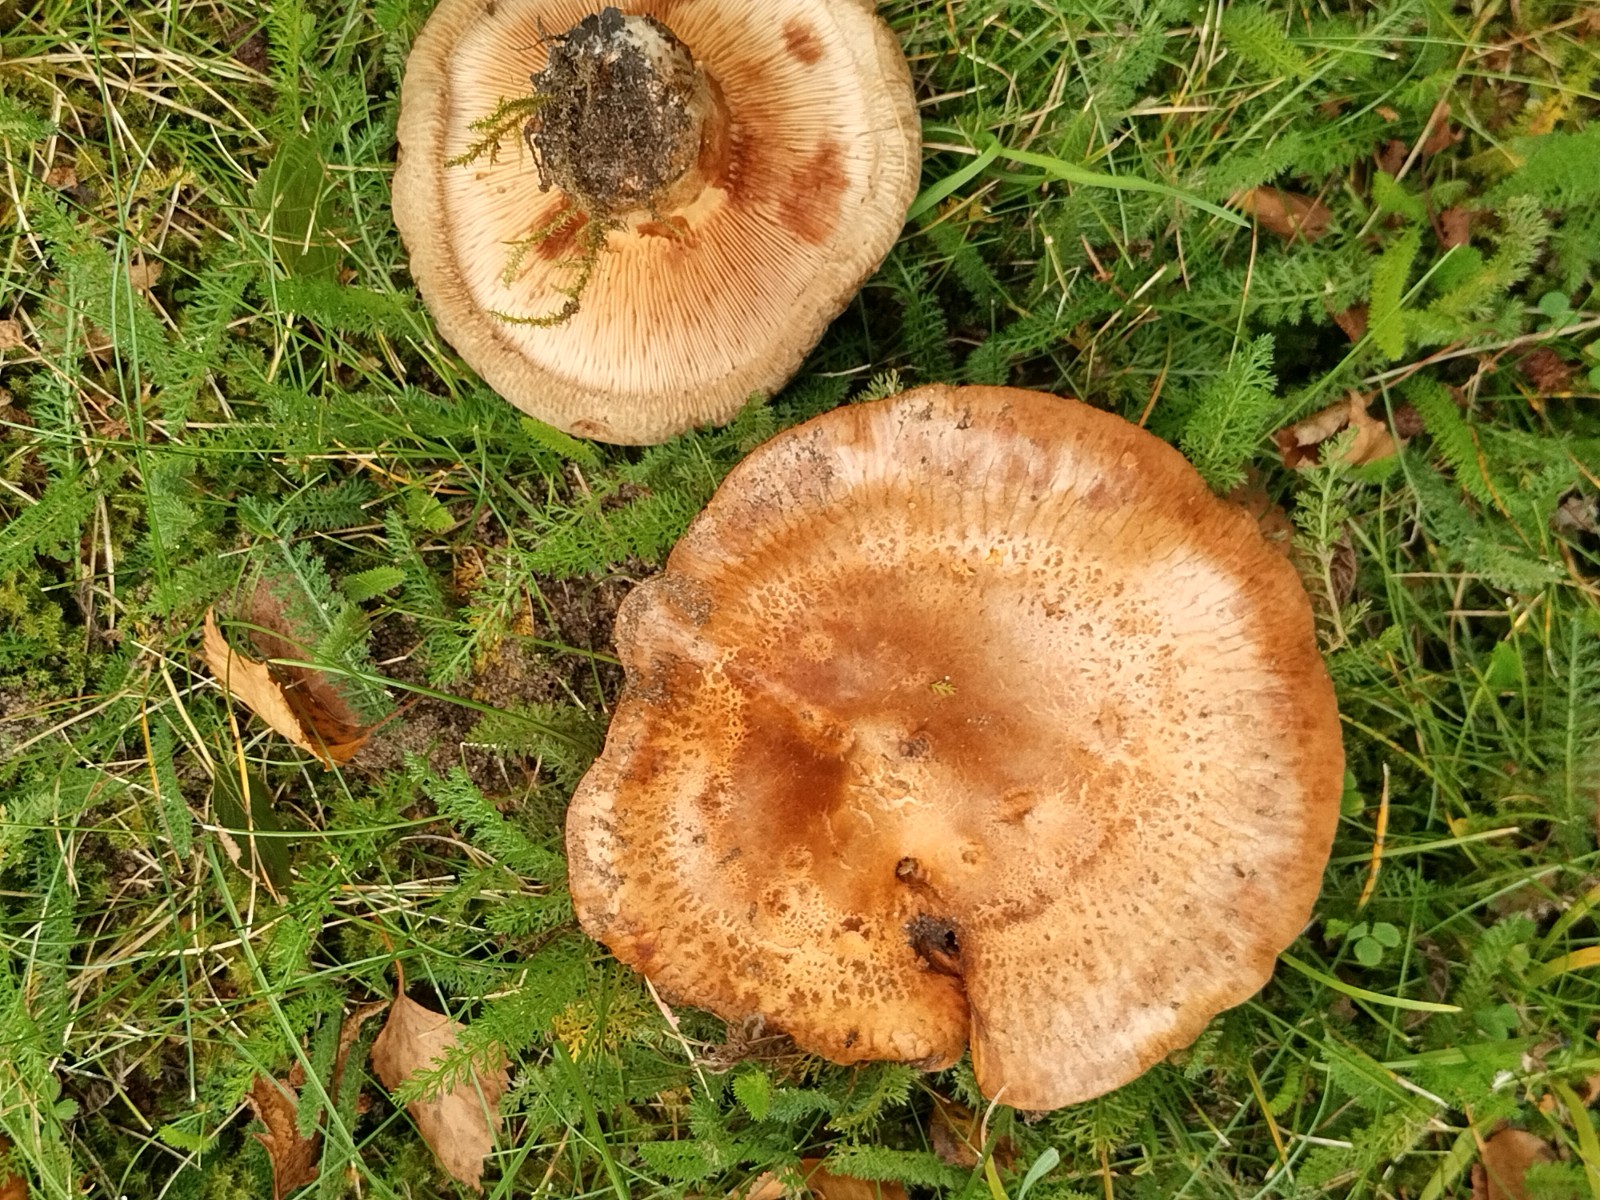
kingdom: Fungi
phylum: Basidiomycota
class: Agaricomycetes
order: Boletales
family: Paxillaceae
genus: Paxillus
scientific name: Paxillus obscurisporus
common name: mahognisporet netbladhat
